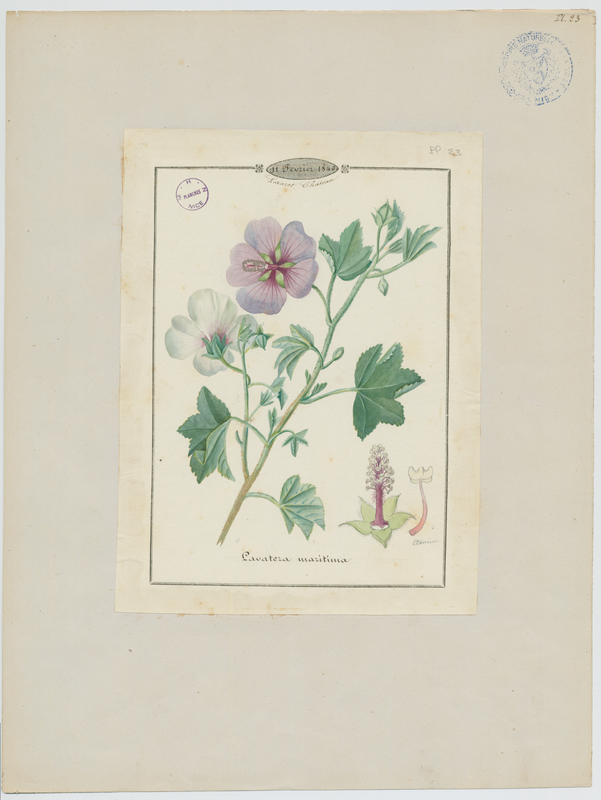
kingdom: Plantae
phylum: Tracheophyta
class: Magnoliopsida
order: Malvales
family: Malvaceae
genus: Malva
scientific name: Malva subovata
